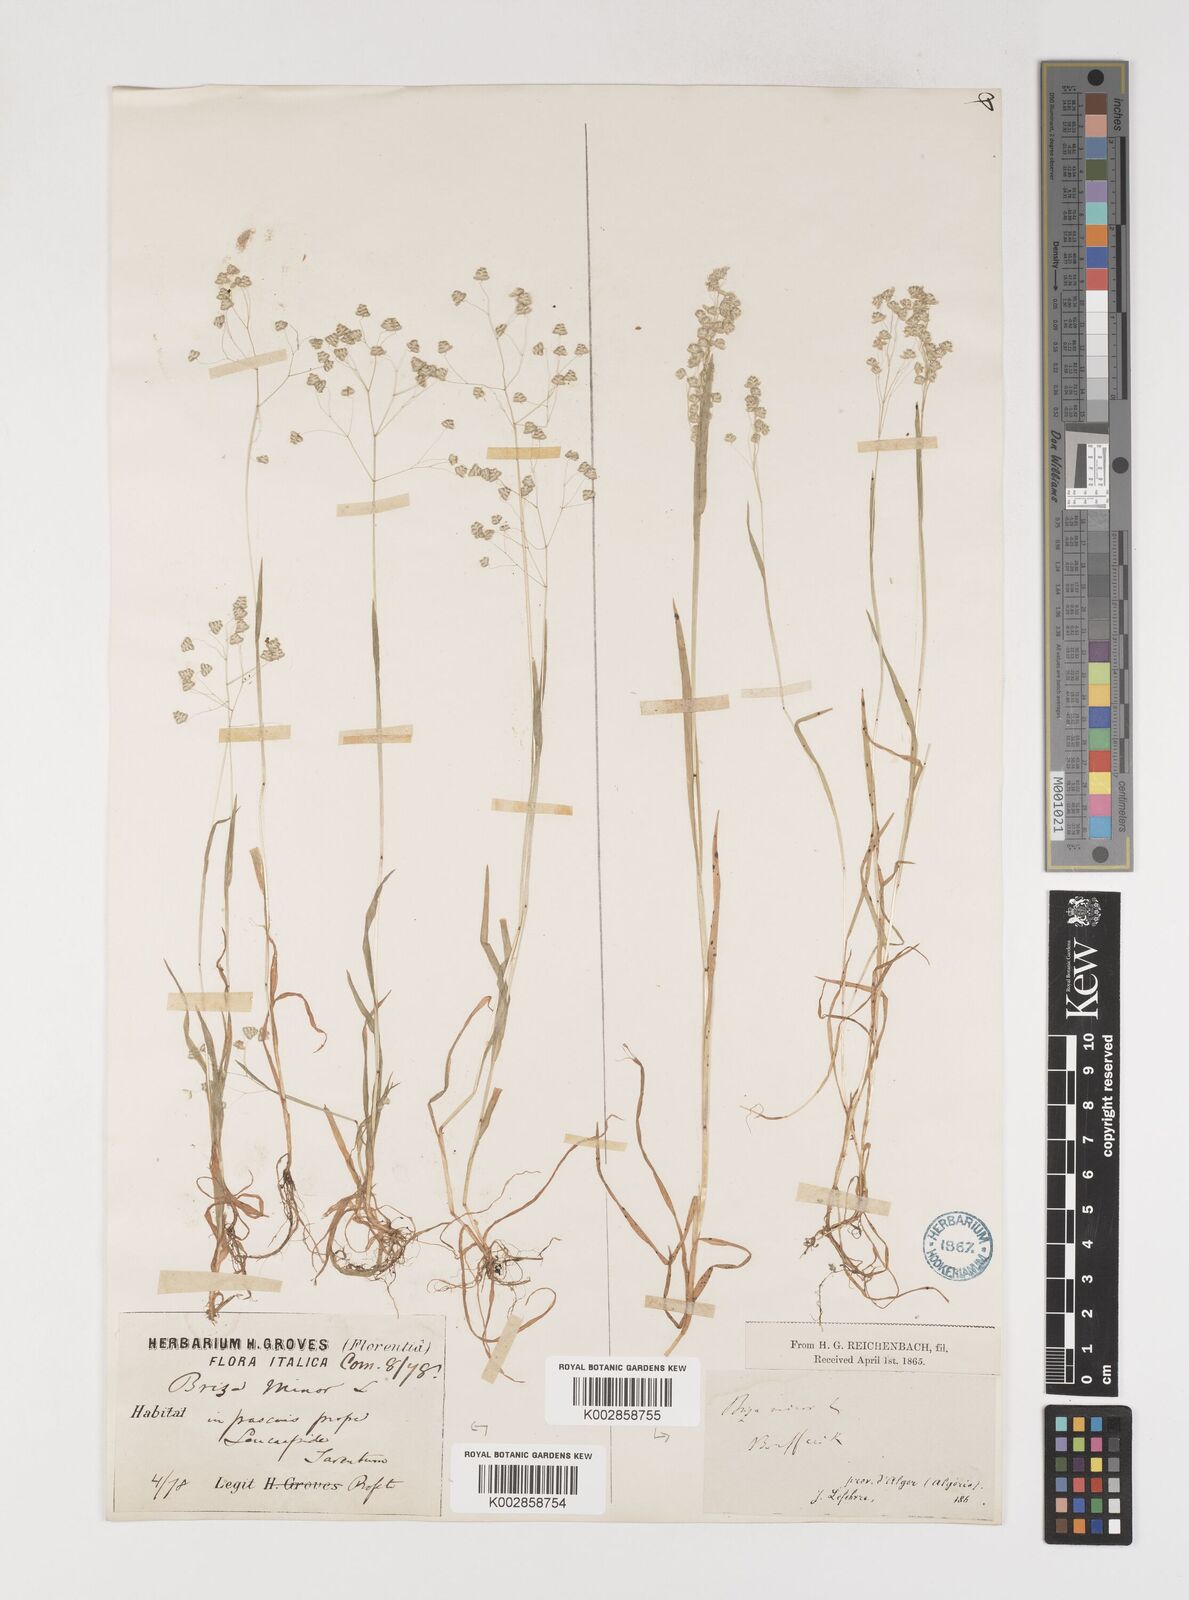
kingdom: Plantae
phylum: Tracheophyta
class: Liliopsida
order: Poales
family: Poaceae
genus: Briza
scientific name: Briza minor
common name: Lesser quaking-grass
